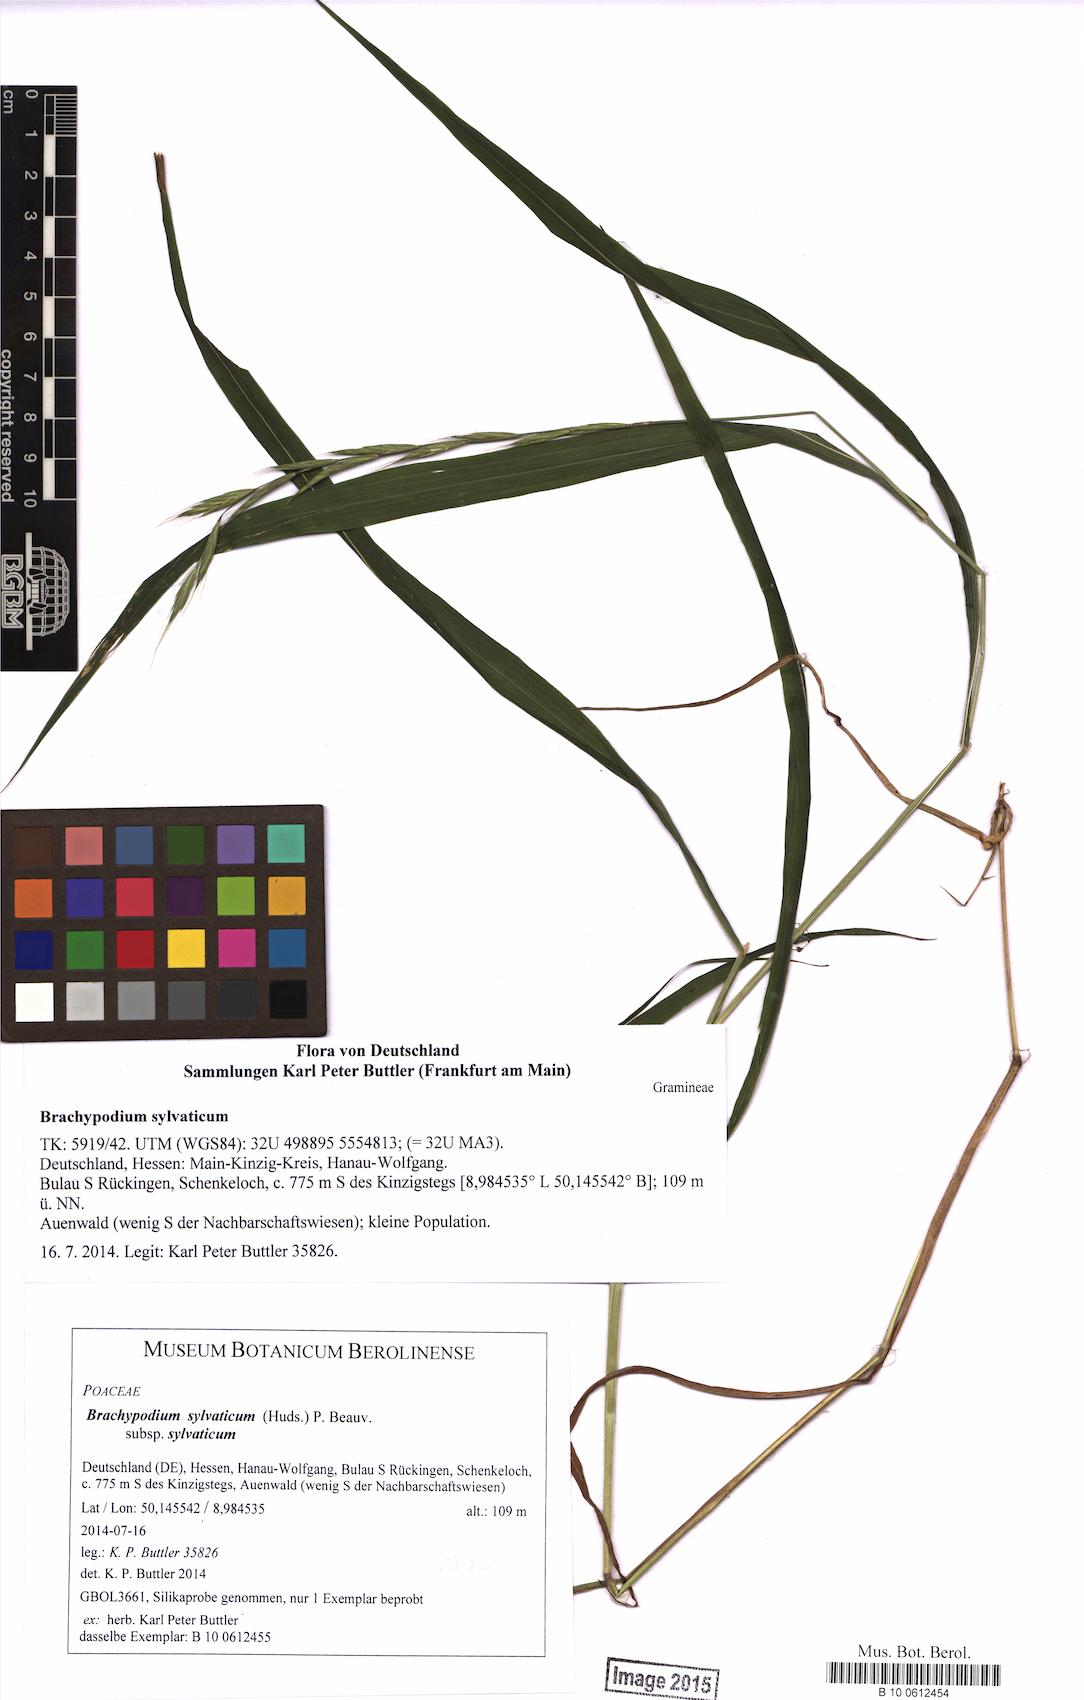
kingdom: Plantae
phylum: Tracheophyta
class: Liliopsida
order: Poales
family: Poaceae
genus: Brachypodium
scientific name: Brachypodium sylvaticum
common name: False-brome
